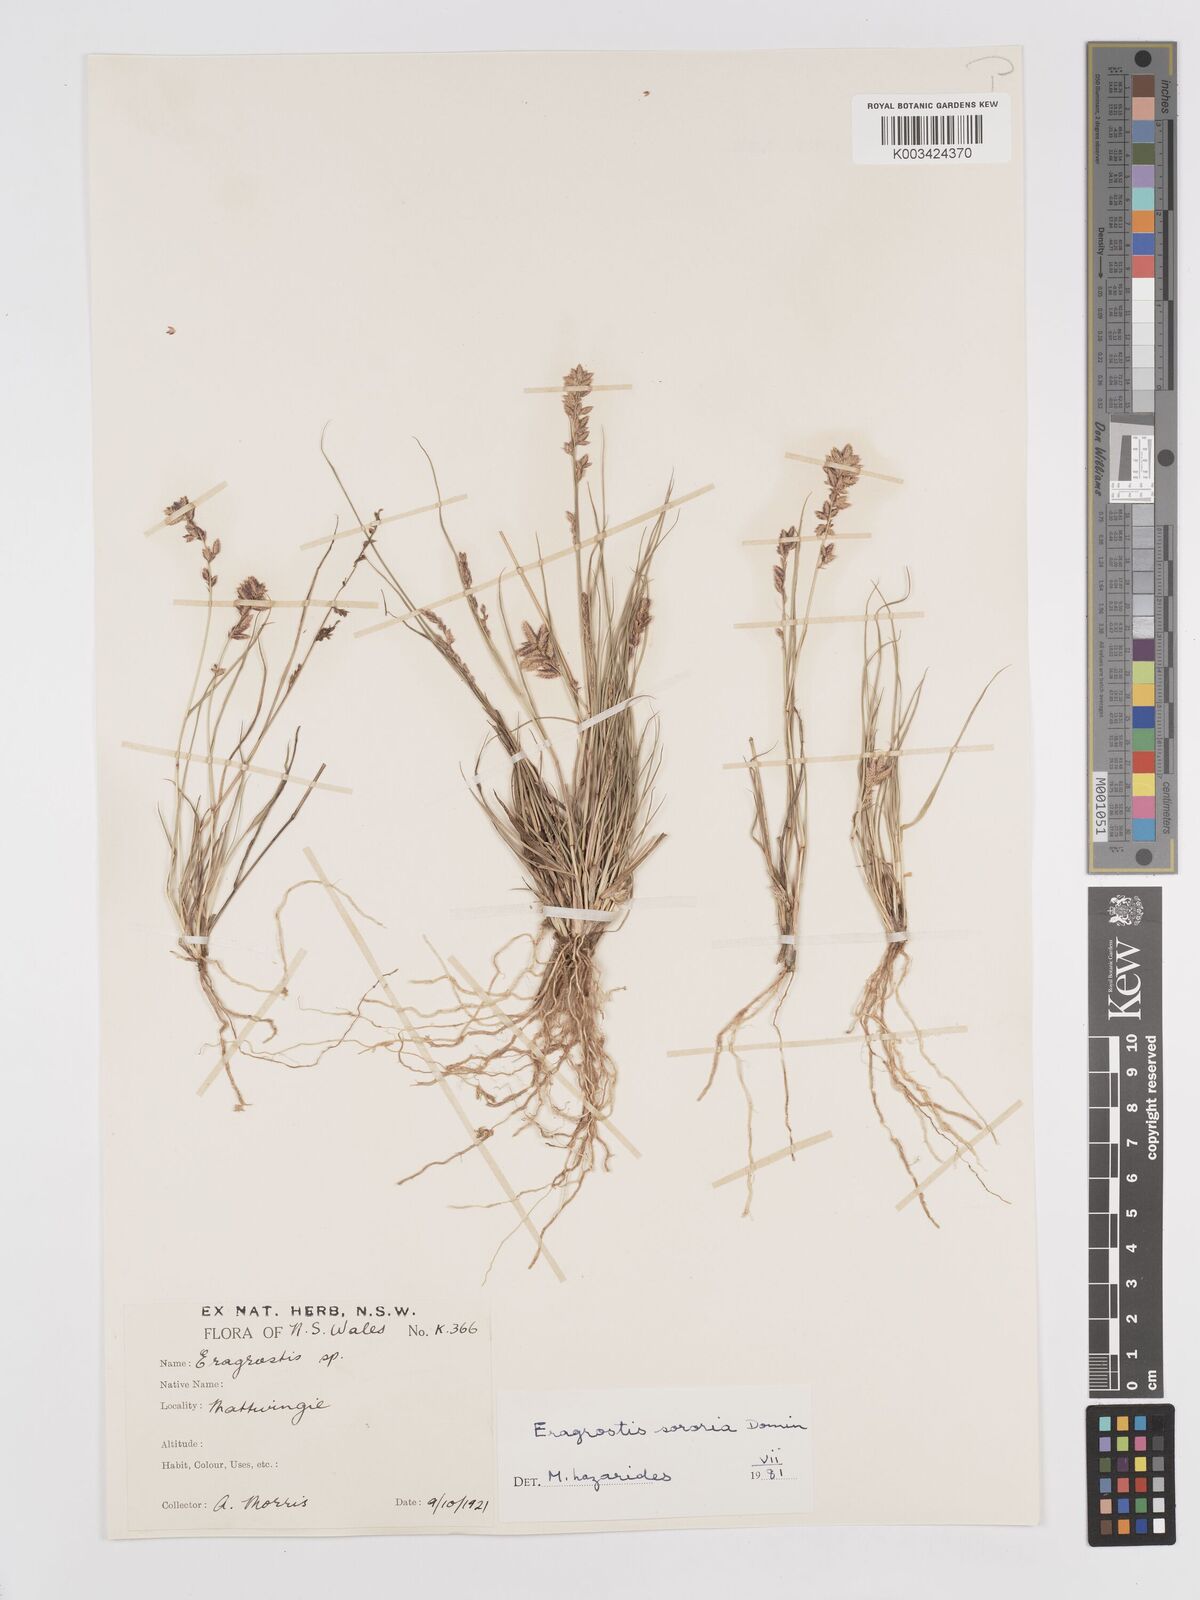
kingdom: Plantae
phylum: Tracheophyta
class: Liliopsida
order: Poales
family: Poaceae
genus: Eragrostis
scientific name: Eragrostis sororia
